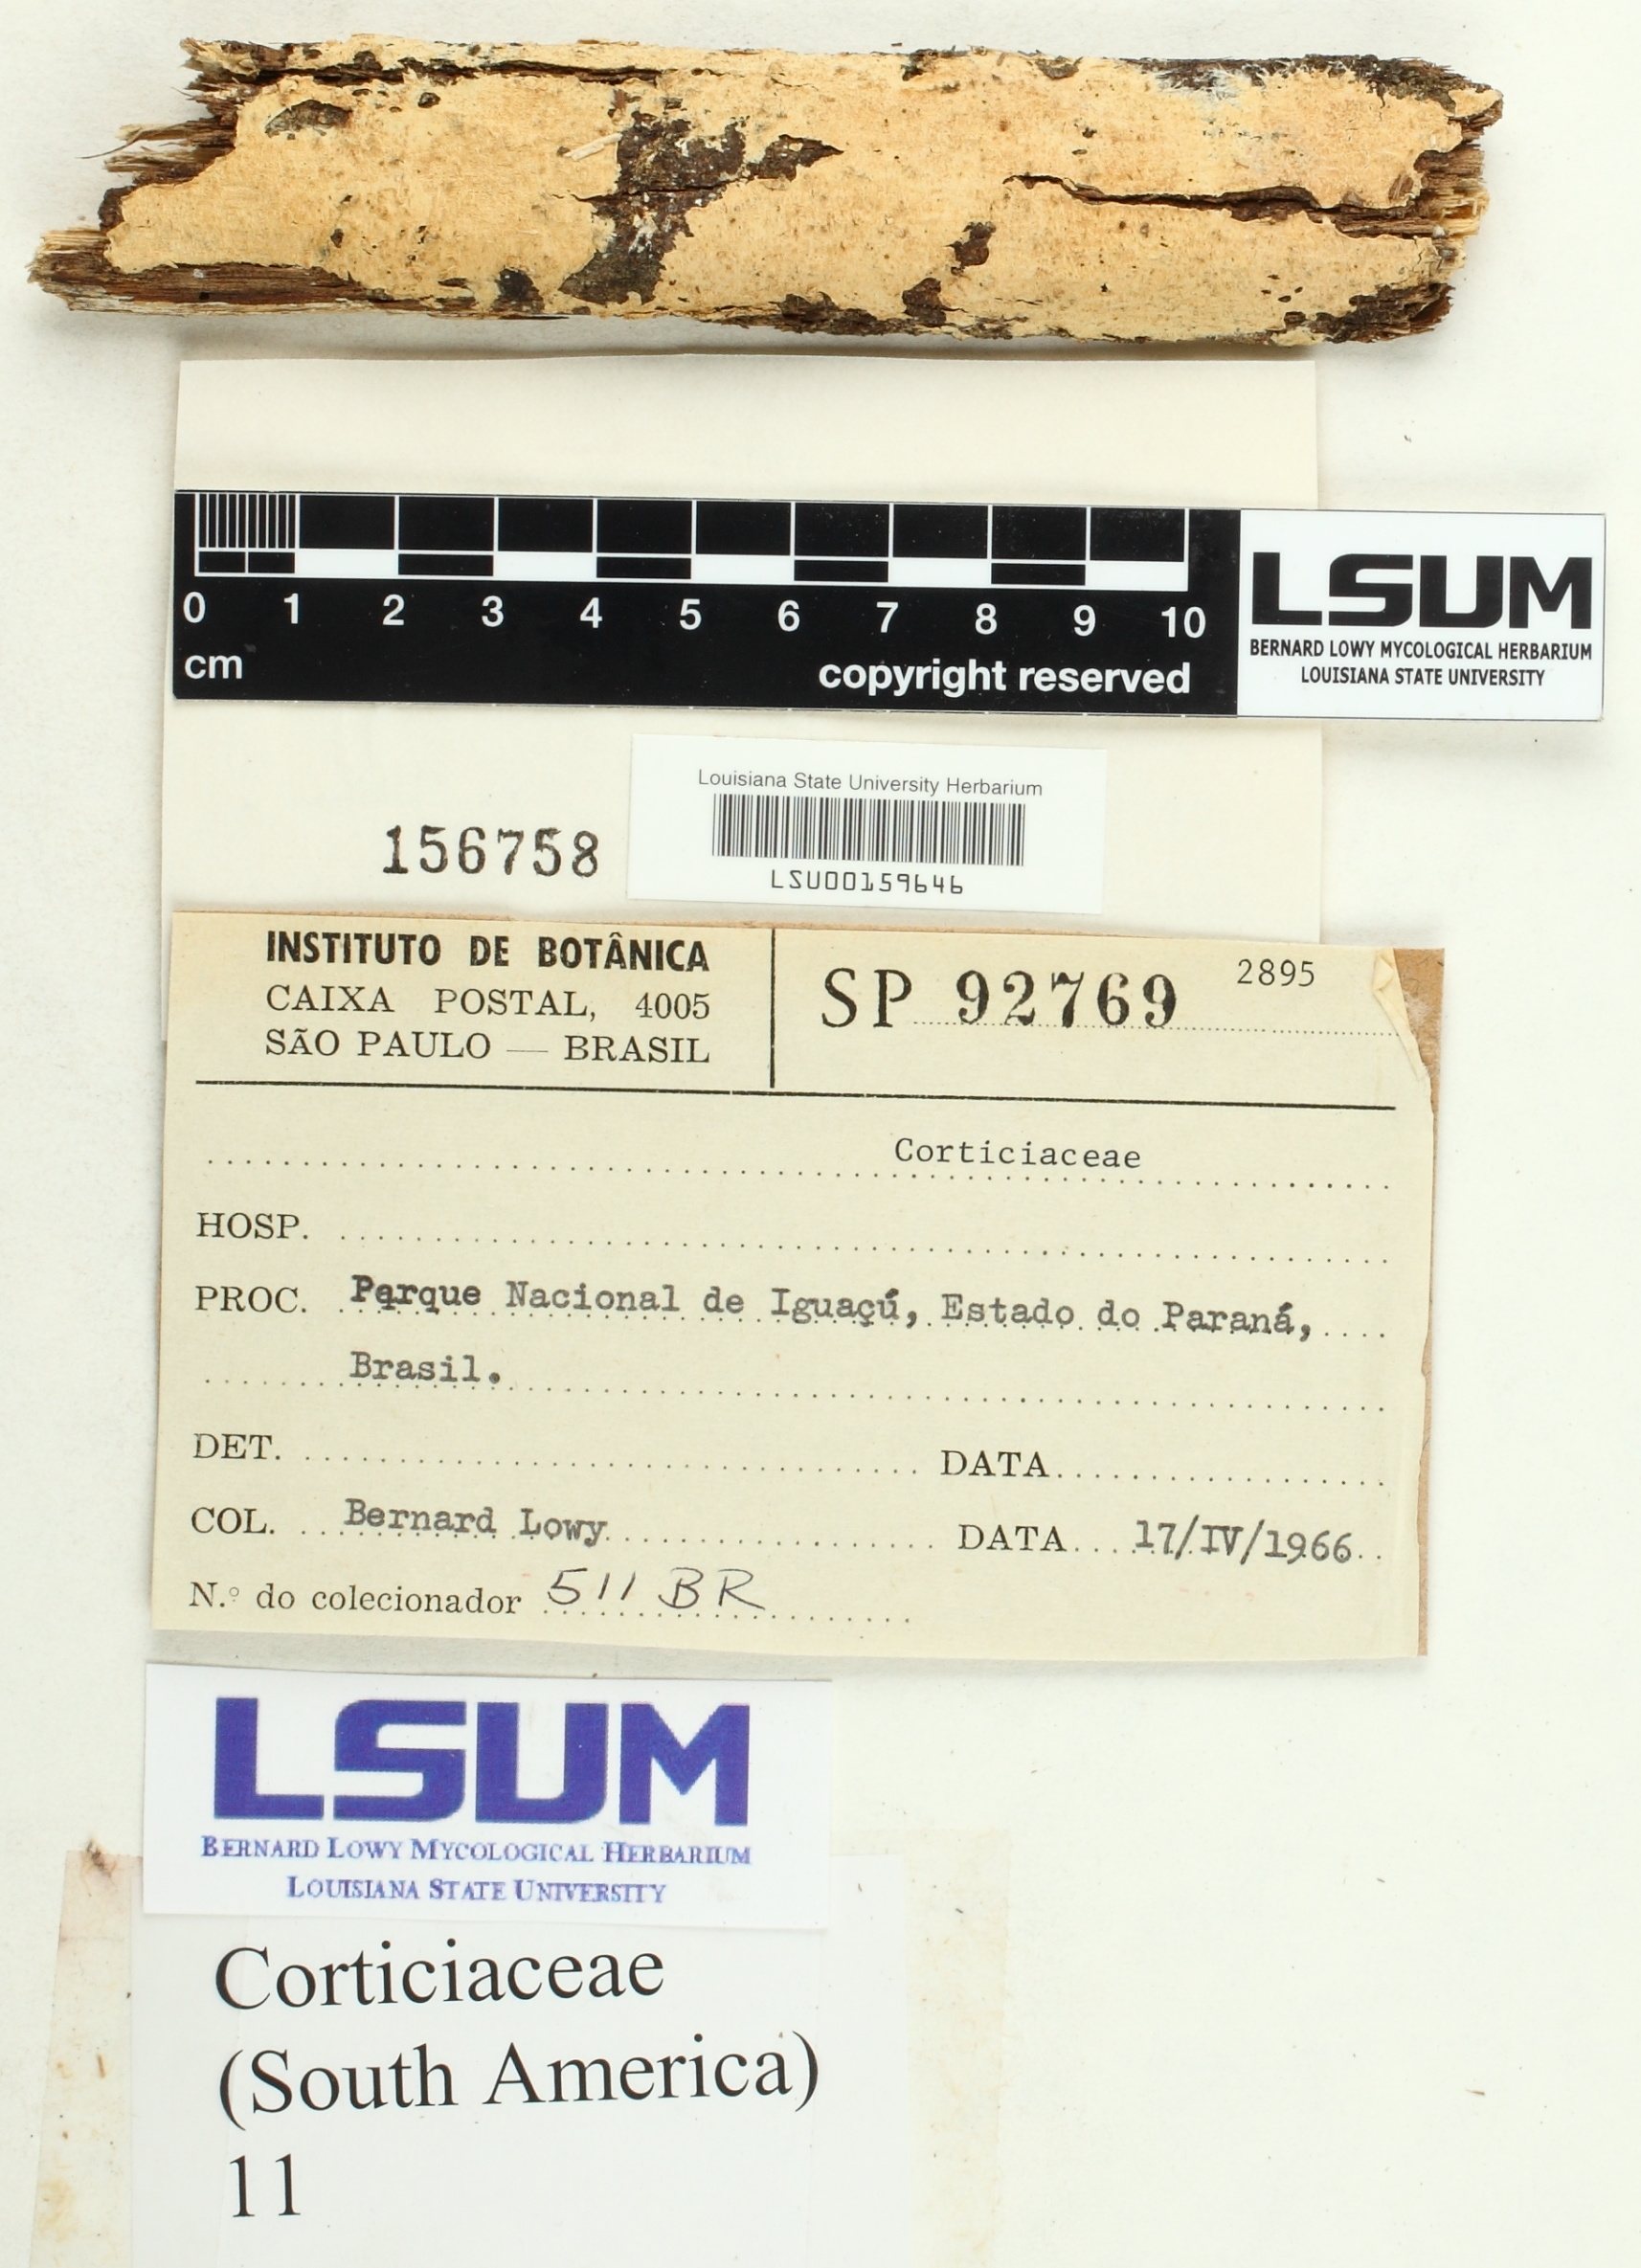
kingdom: Fungi
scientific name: Fungi
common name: Fungi
